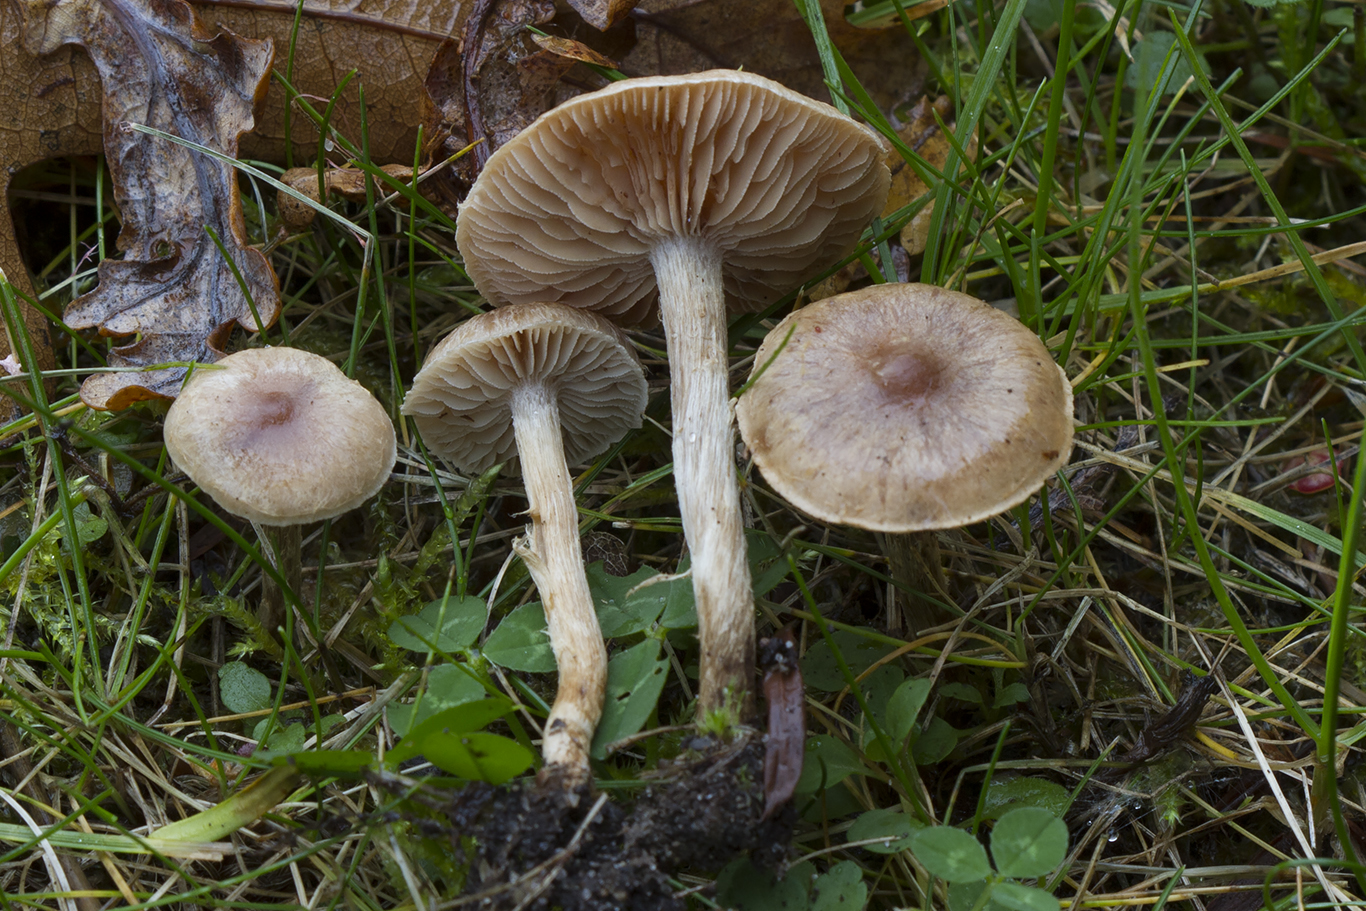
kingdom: Fungi
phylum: Basidiomycota
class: Agaricomycetes
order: Agaricales
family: Hymenogastraceae
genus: Hebeloma
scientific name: Hebeloma mesophaeum
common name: lerbrun tåreblad
